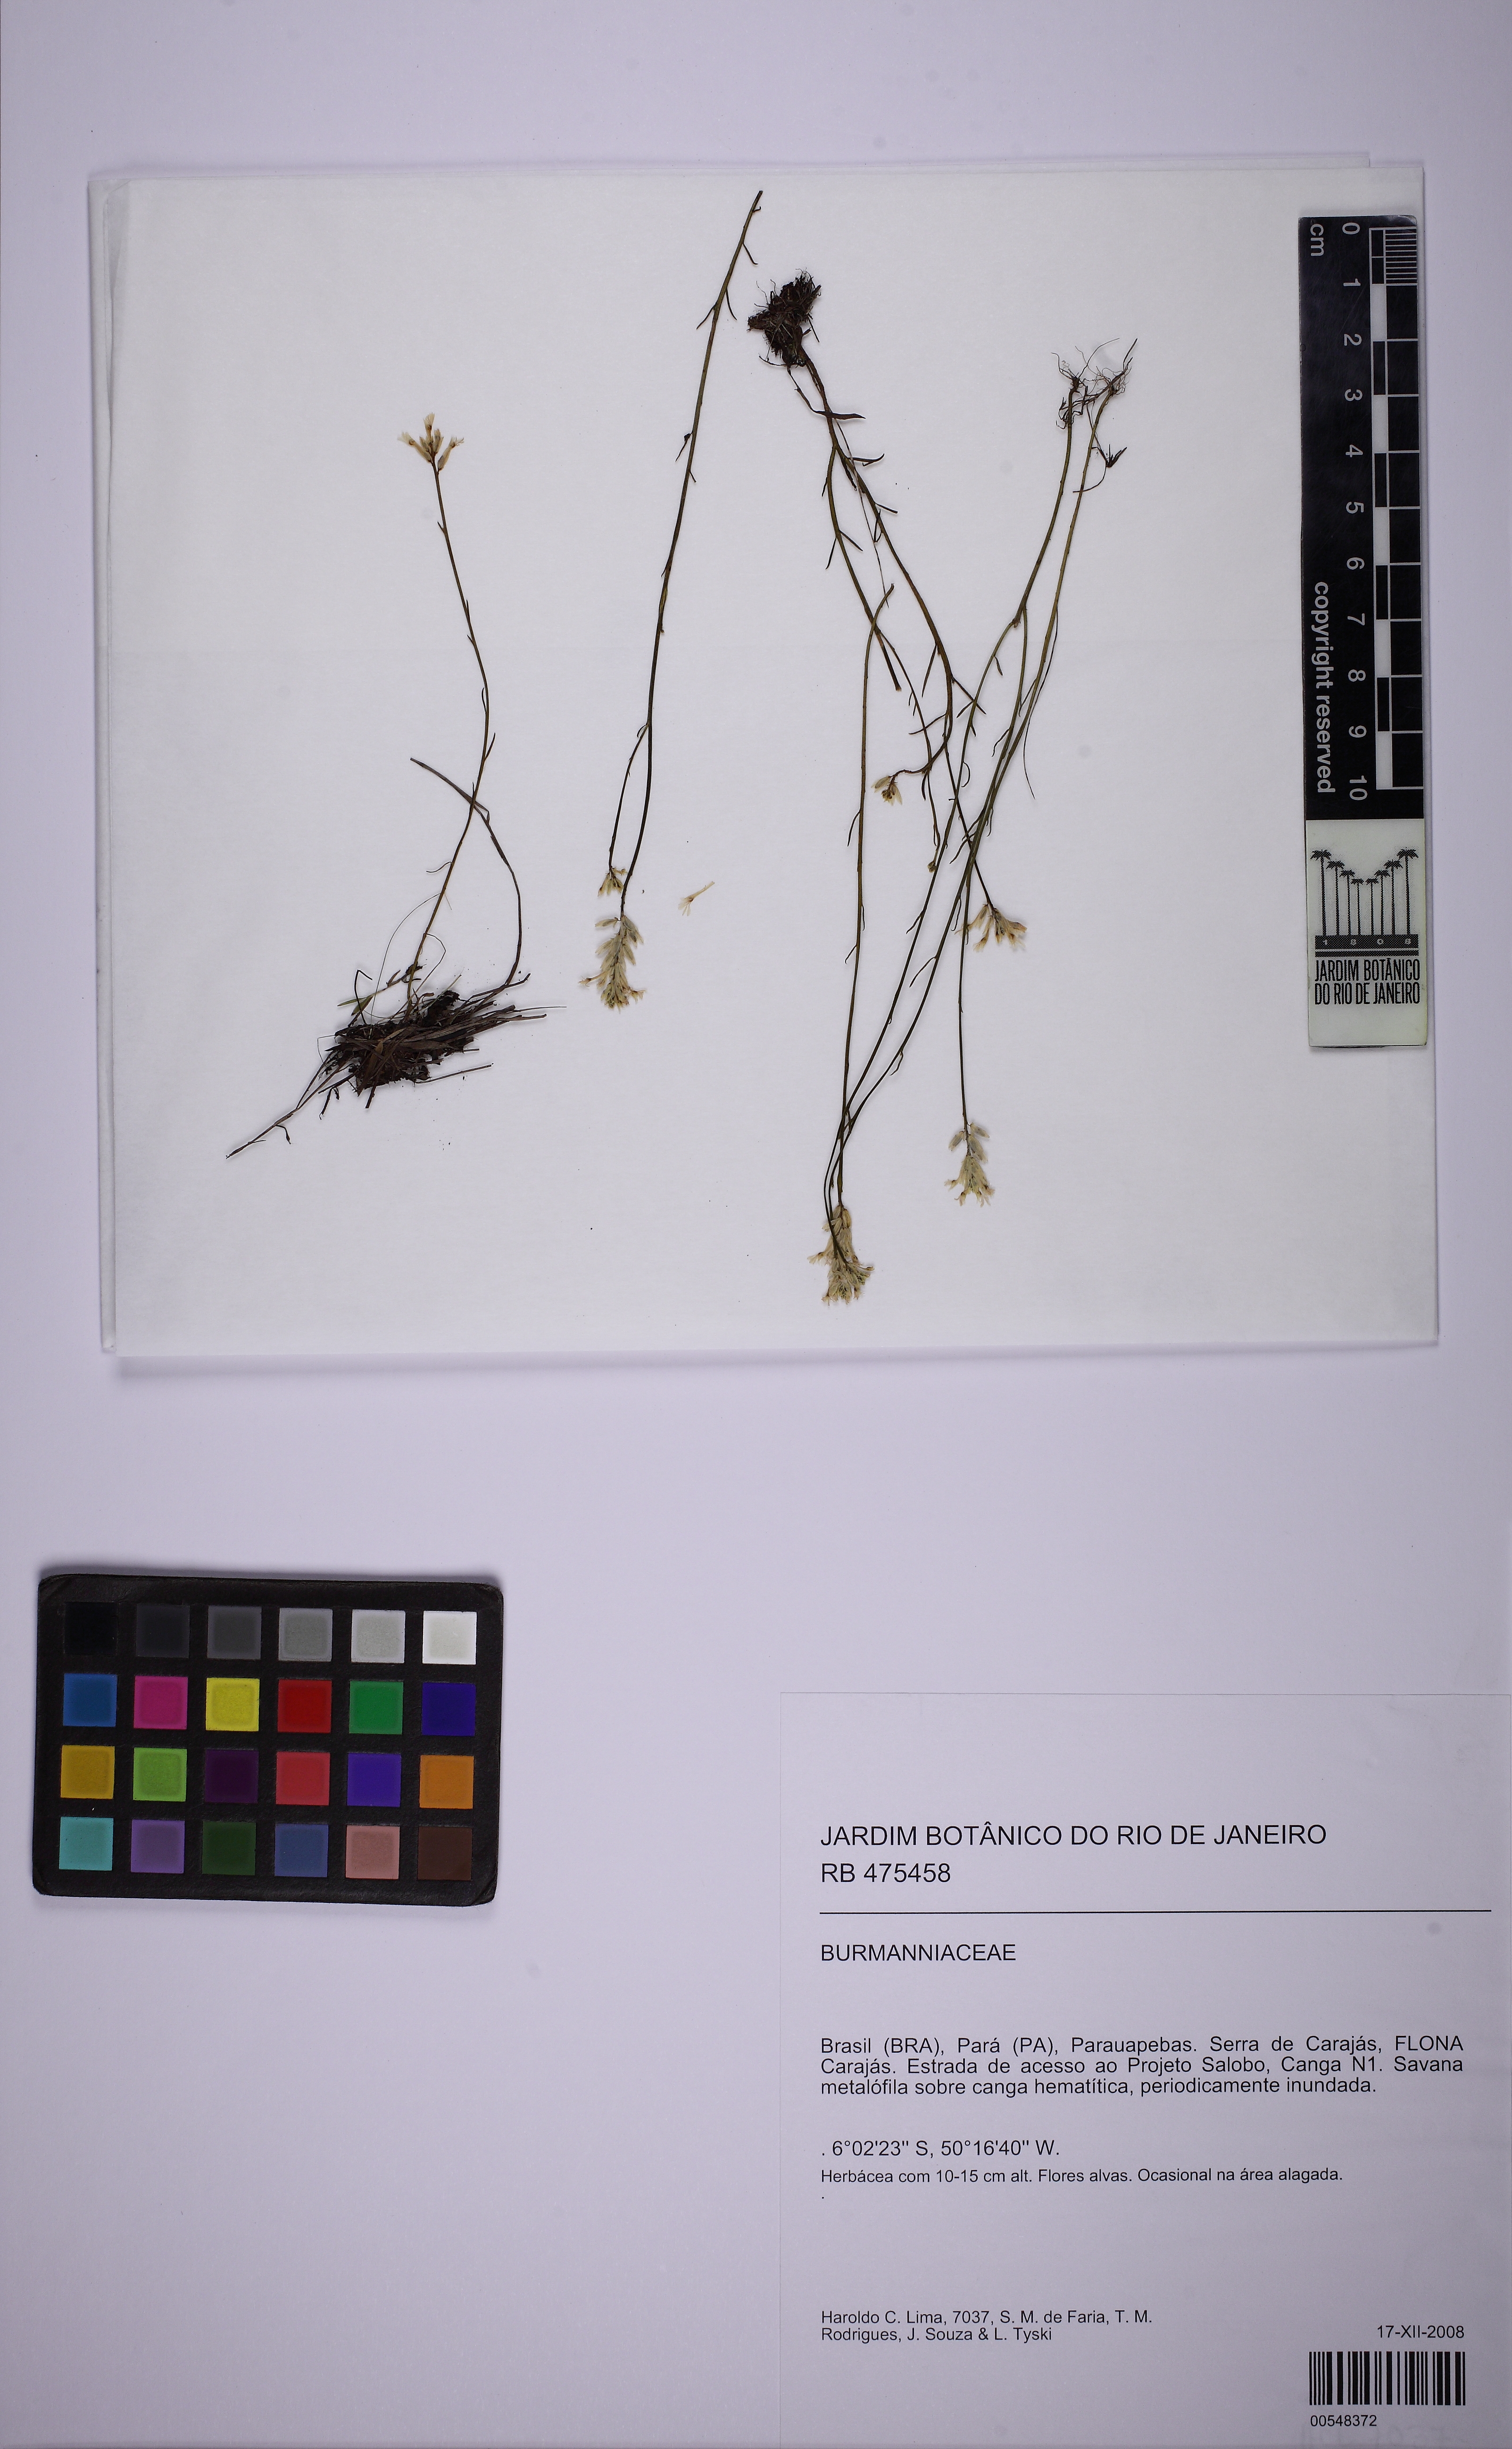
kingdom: Plantae
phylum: Tracheophyta
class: Magnoliopsida
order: Fabales
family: Polygalaceae
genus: Polygala
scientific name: Polygala adenophora
